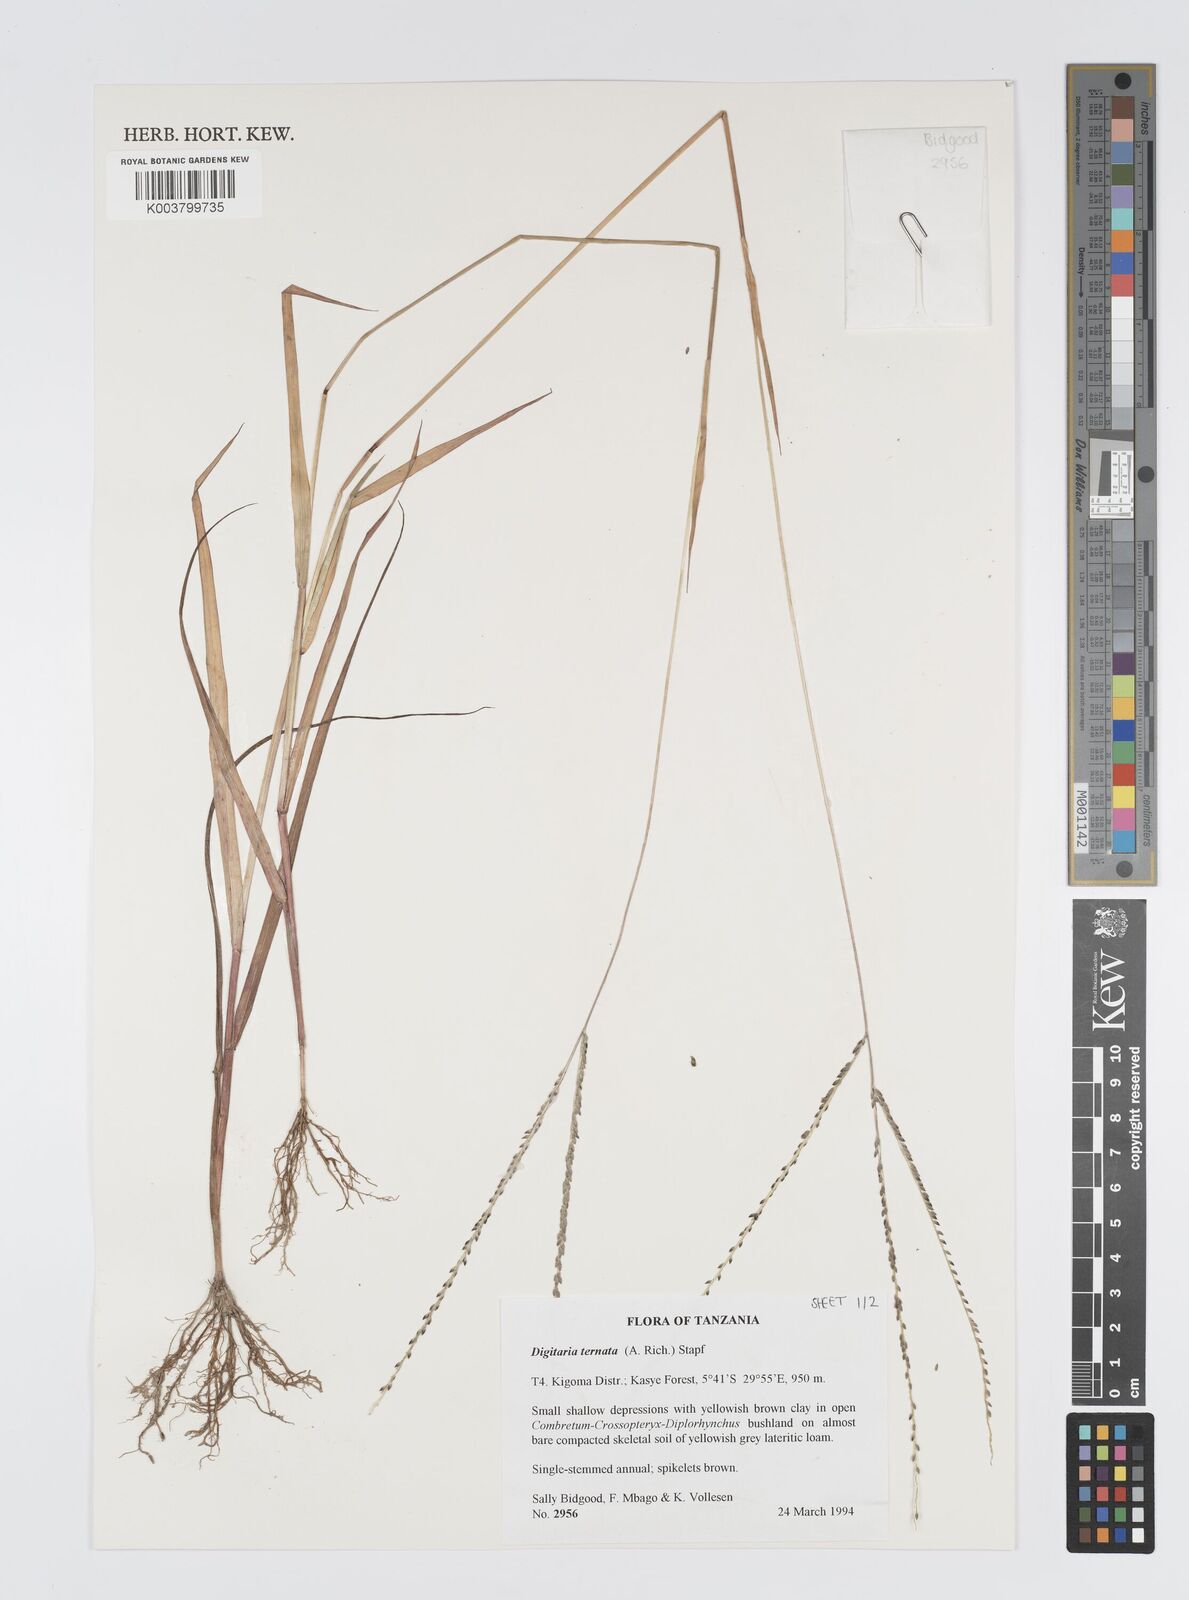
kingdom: Plantae
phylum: Tracheophyta
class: Liliopsida
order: Poales
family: Poaceae
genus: Digitaria
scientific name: Digitaria ternata
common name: Blackseed crabgrass
